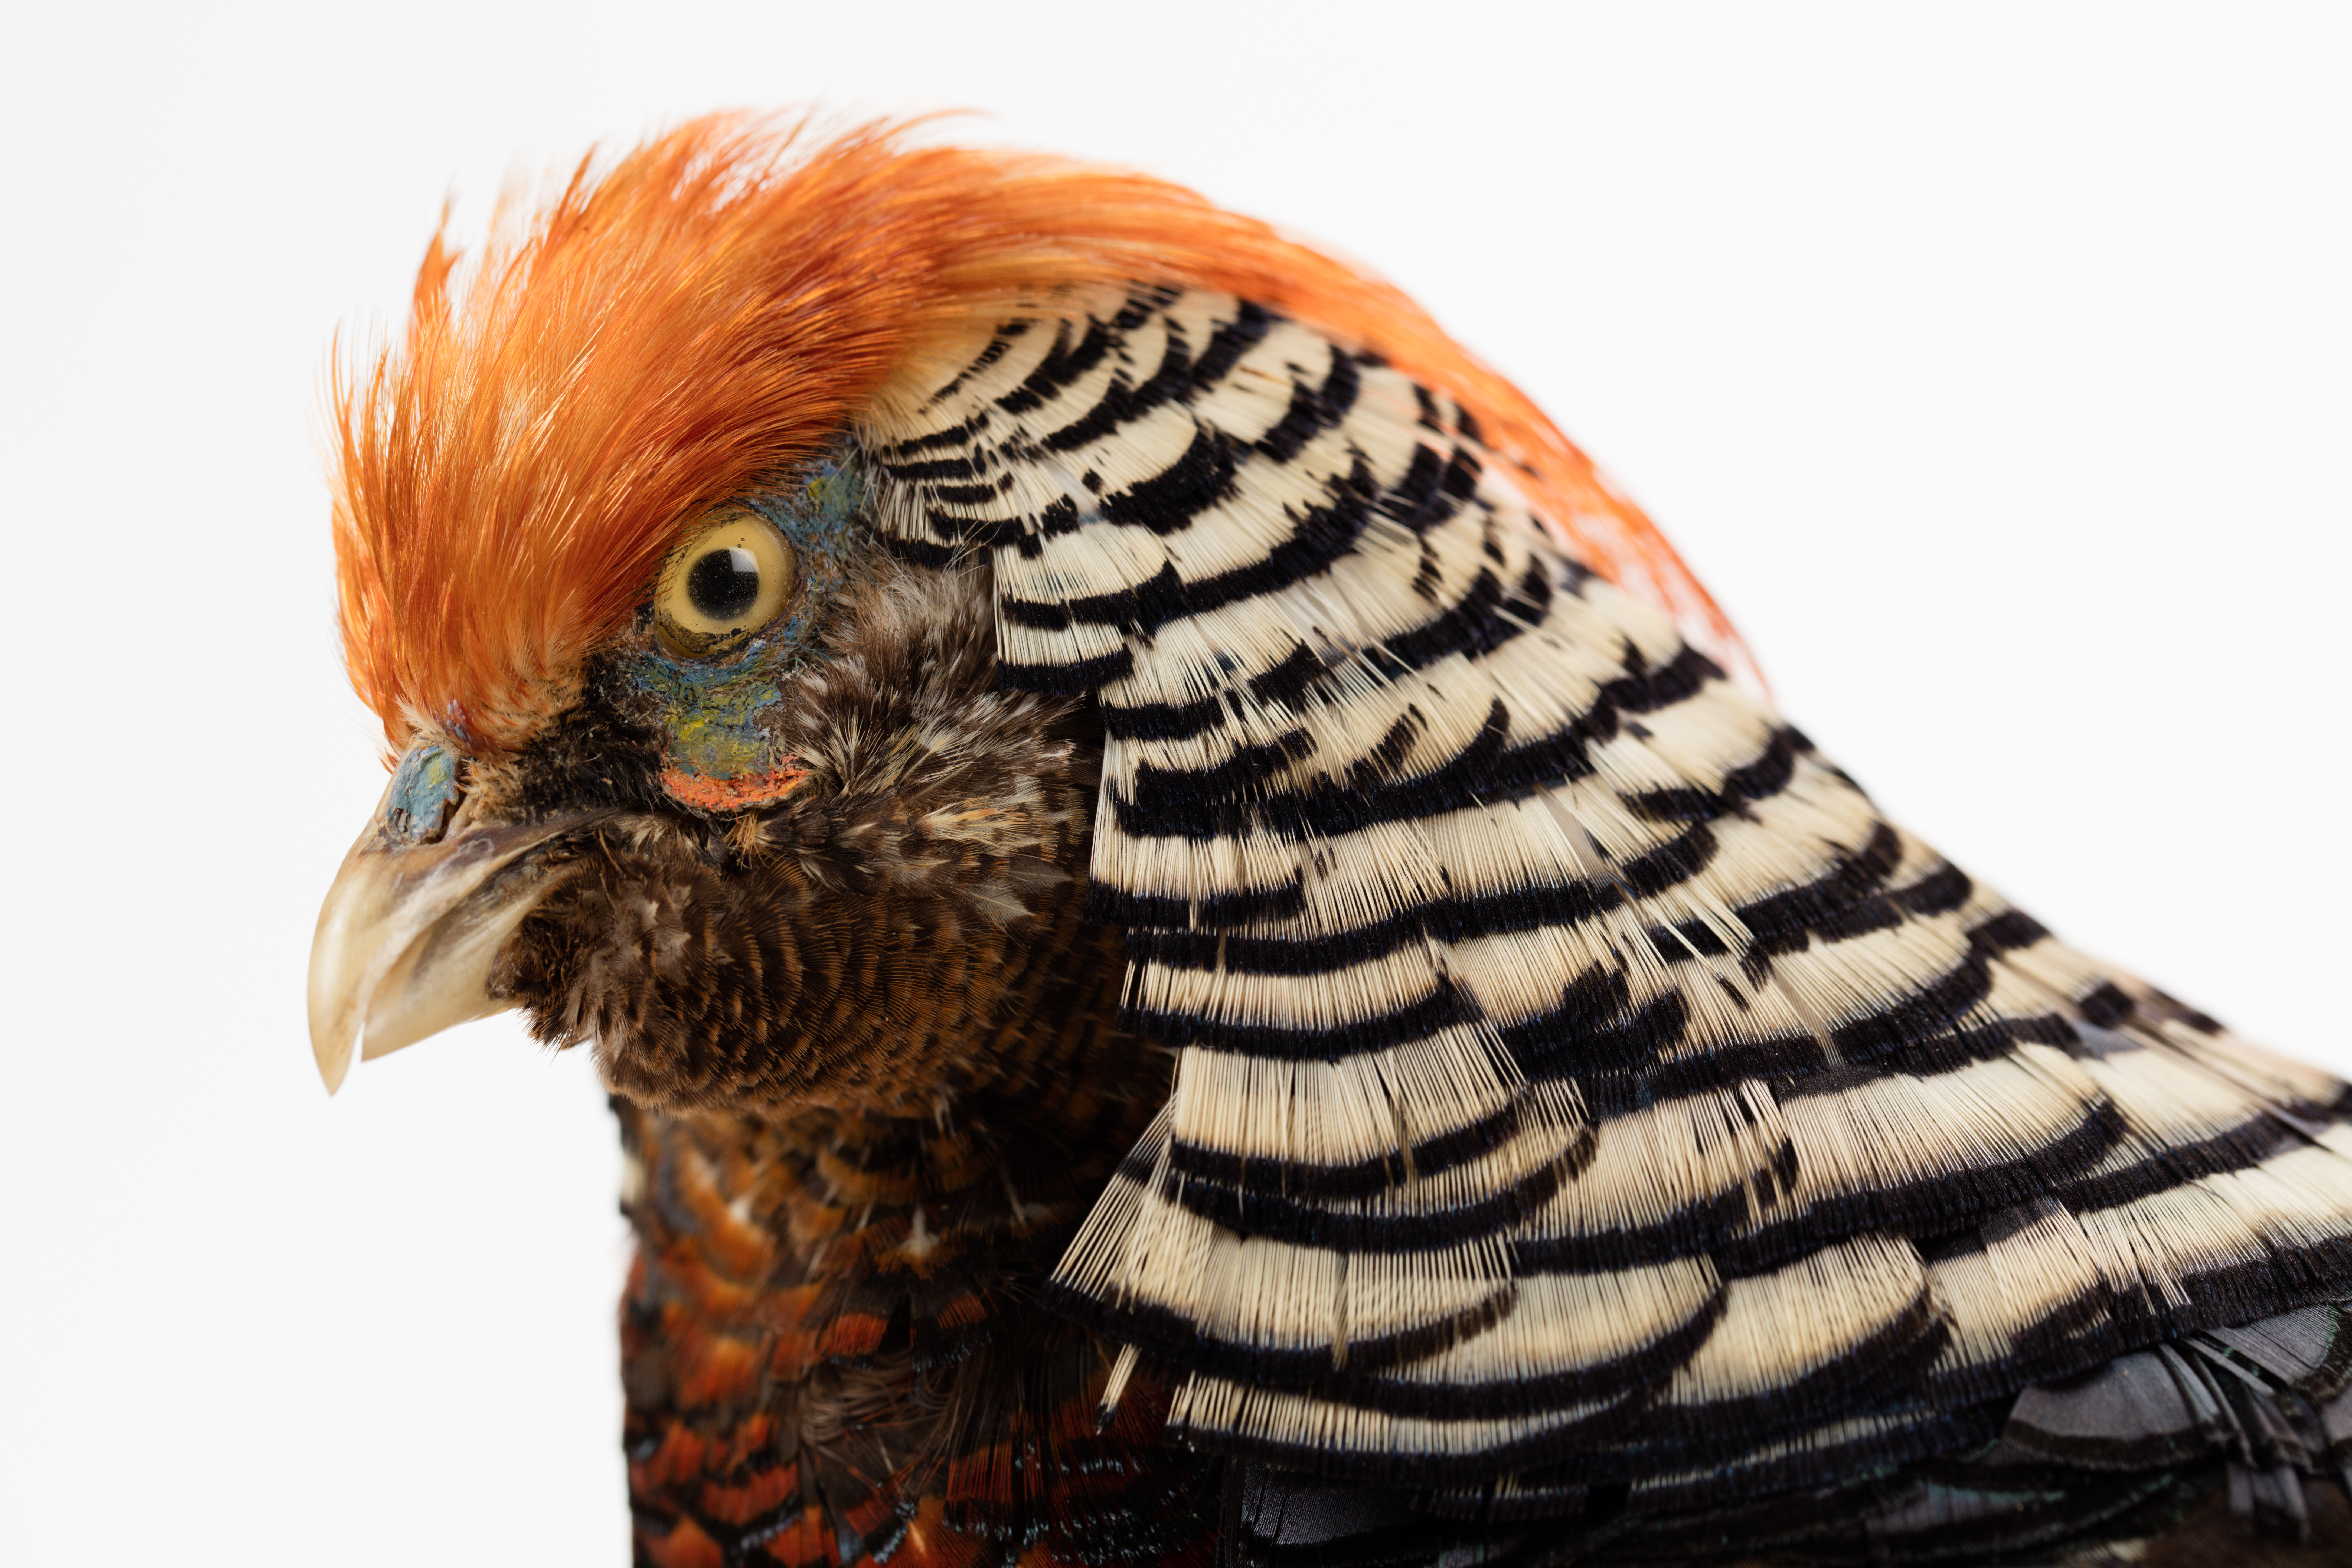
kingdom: Animalia
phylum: Chordata
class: Aves
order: Galliformes
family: Phasianidae
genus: Chrysolophus
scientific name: Chrysolophus pictus
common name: Golden pheasant
